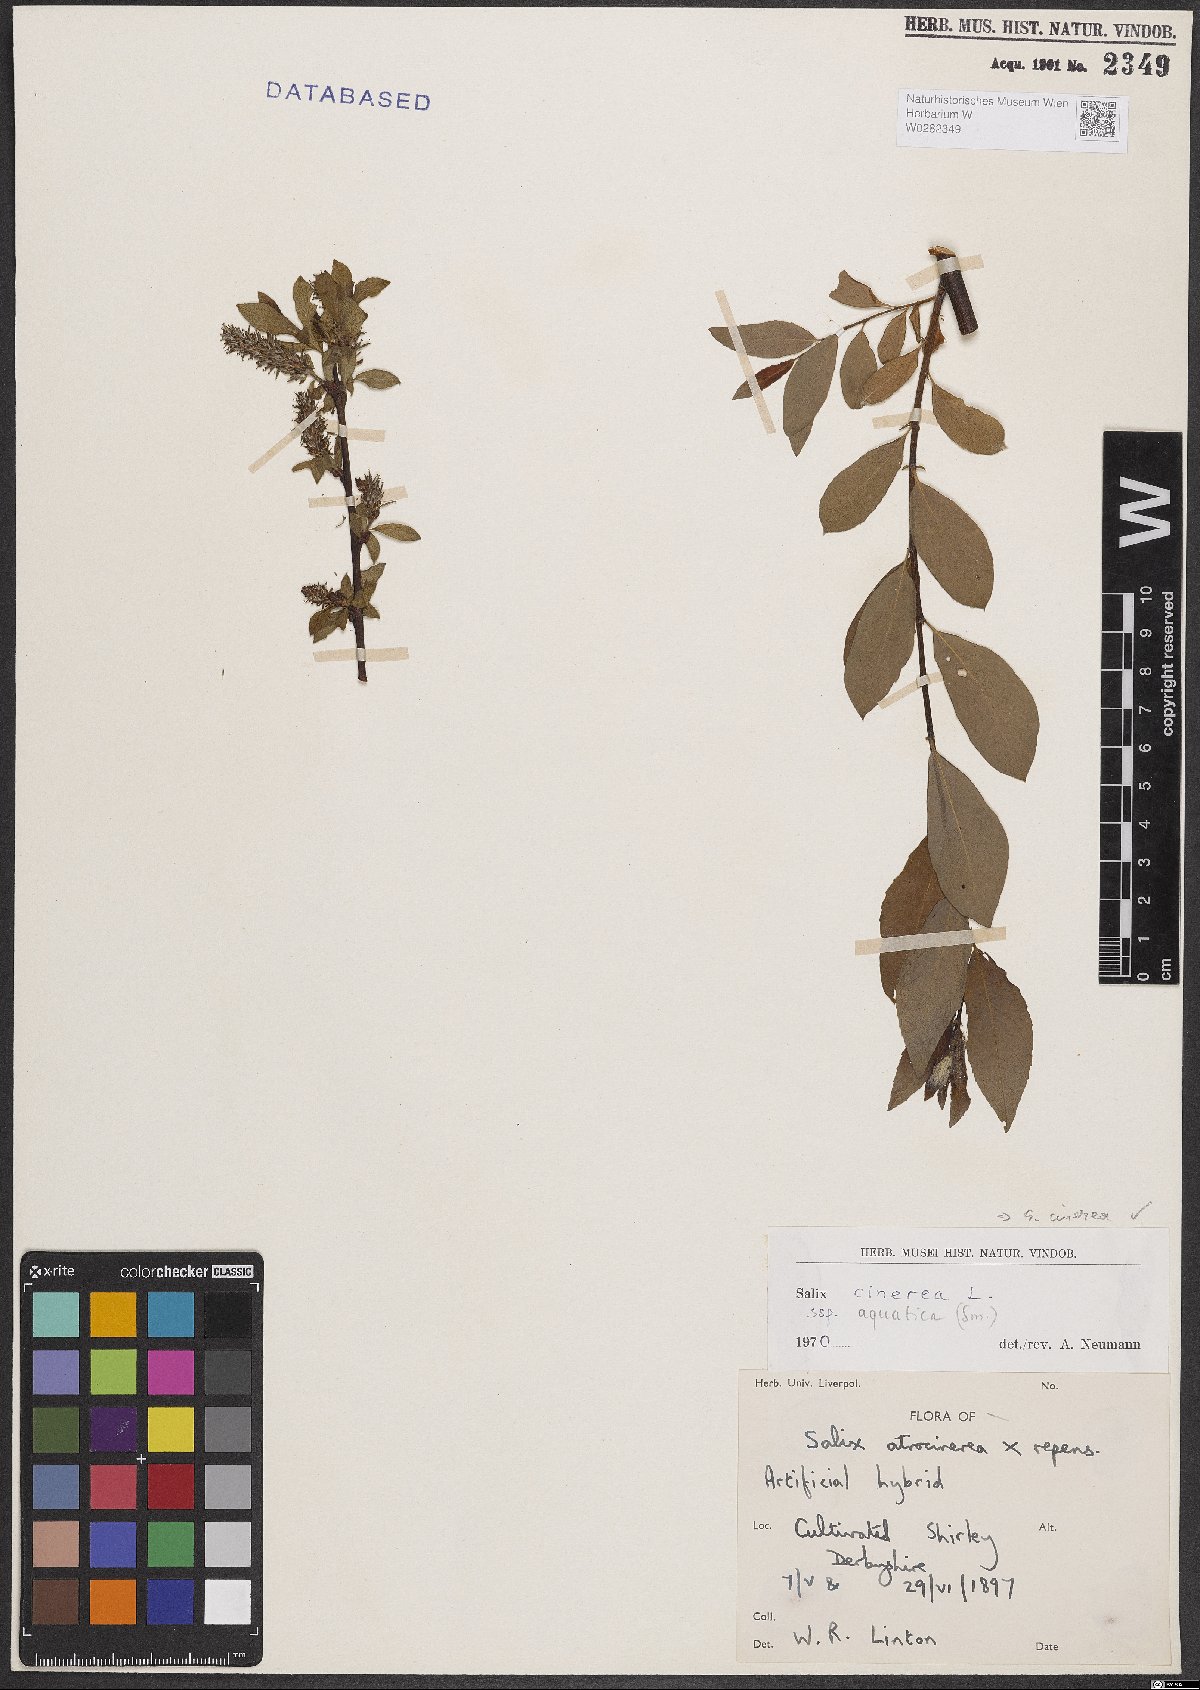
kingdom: Plantae
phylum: Tracheophyta
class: Magnoliopsida
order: Malpighiales
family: Salicaceae
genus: Salix
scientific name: Salix cinerea
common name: Common sallow
